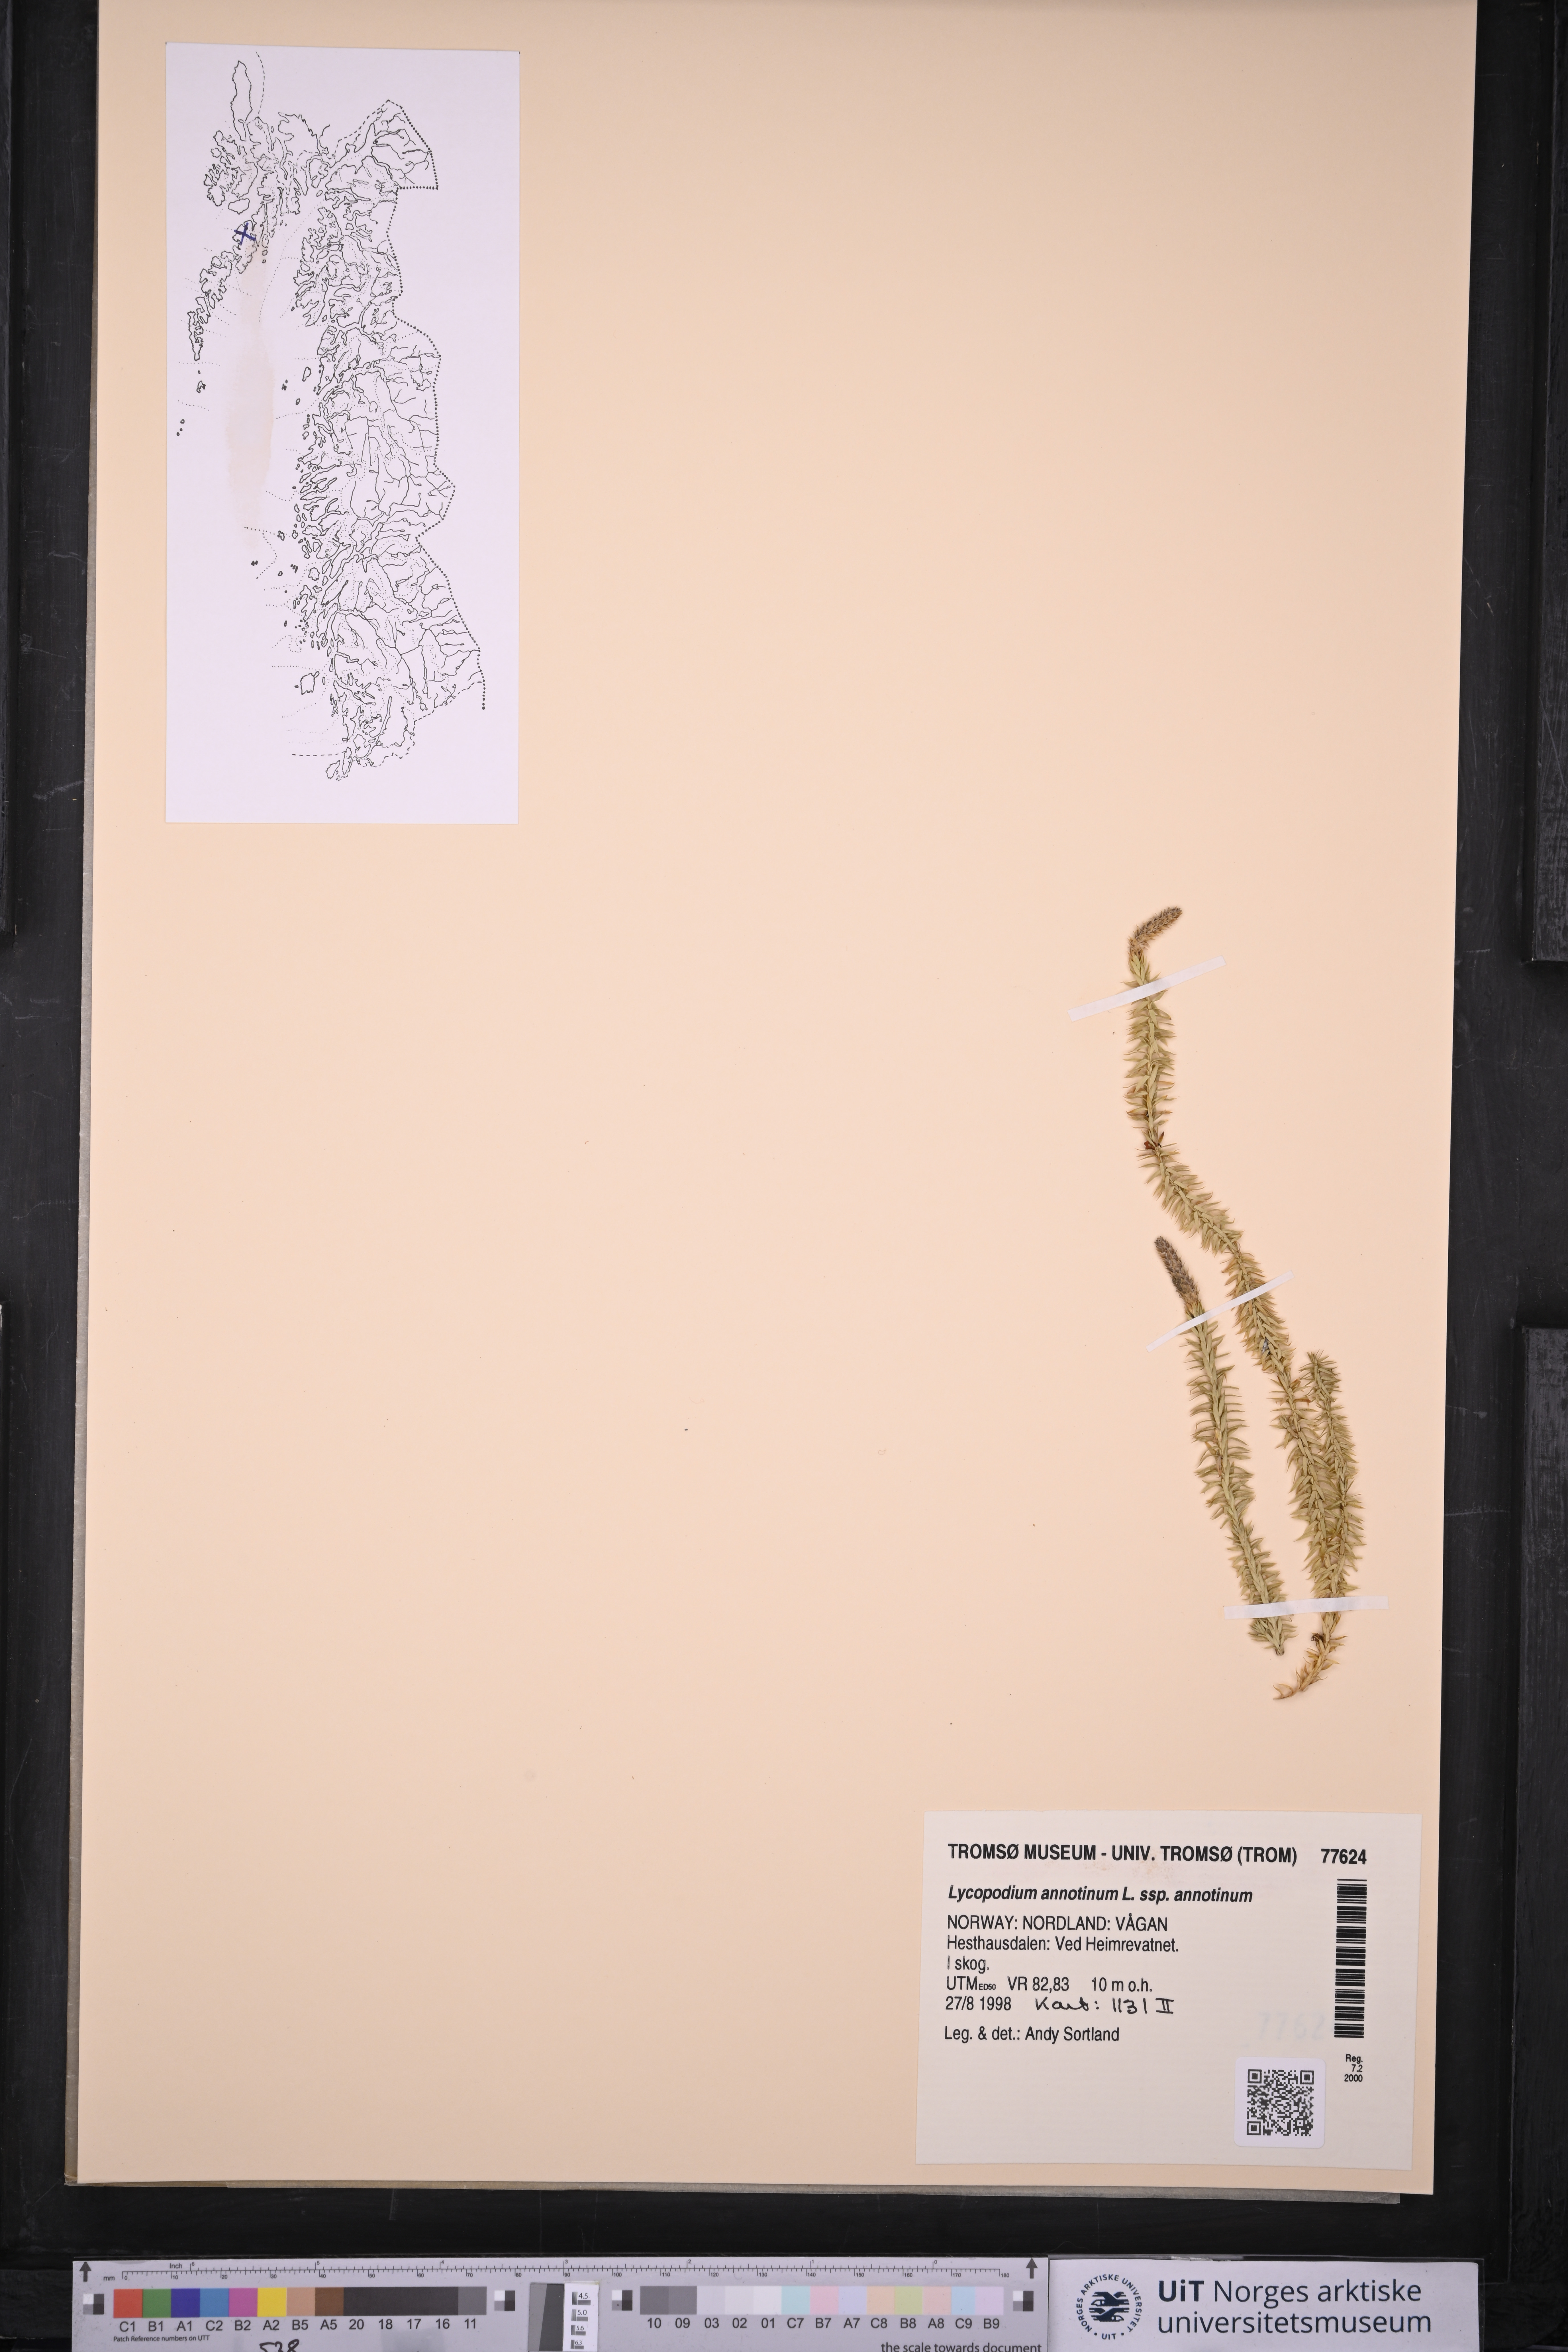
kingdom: Plantae
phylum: Tracheophyta
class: Lycopodiopsida
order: Lycopodiales
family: Lycopodiaceae
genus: Spinulum
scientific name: Spinulum annotinum
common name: Interrupted club-moss
